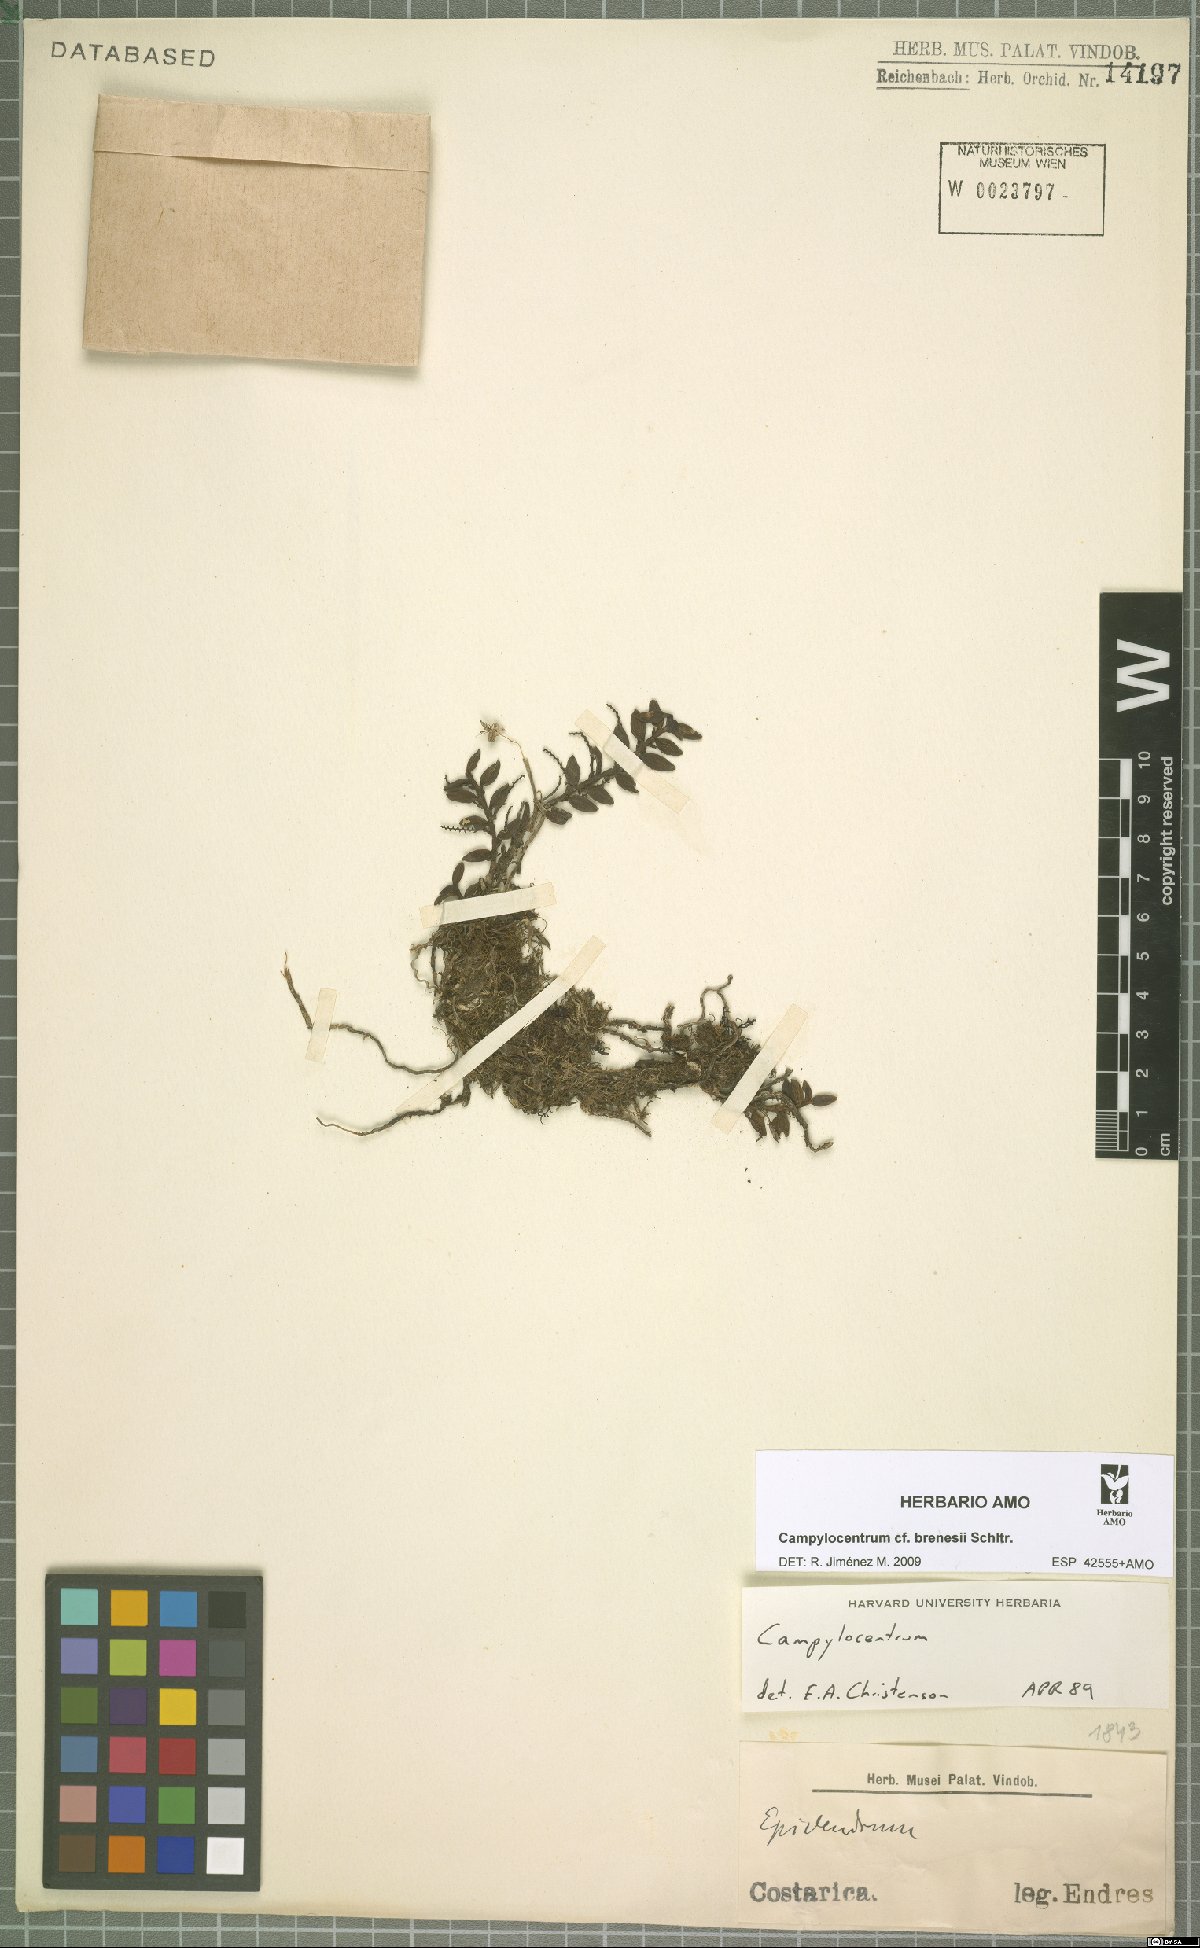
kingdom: Plantae
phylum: Tracheophyta
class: Liliopsida
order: Asparagales
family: Orchidaceae
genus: Campylocentrum
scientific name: Campylocentrum brenesii
